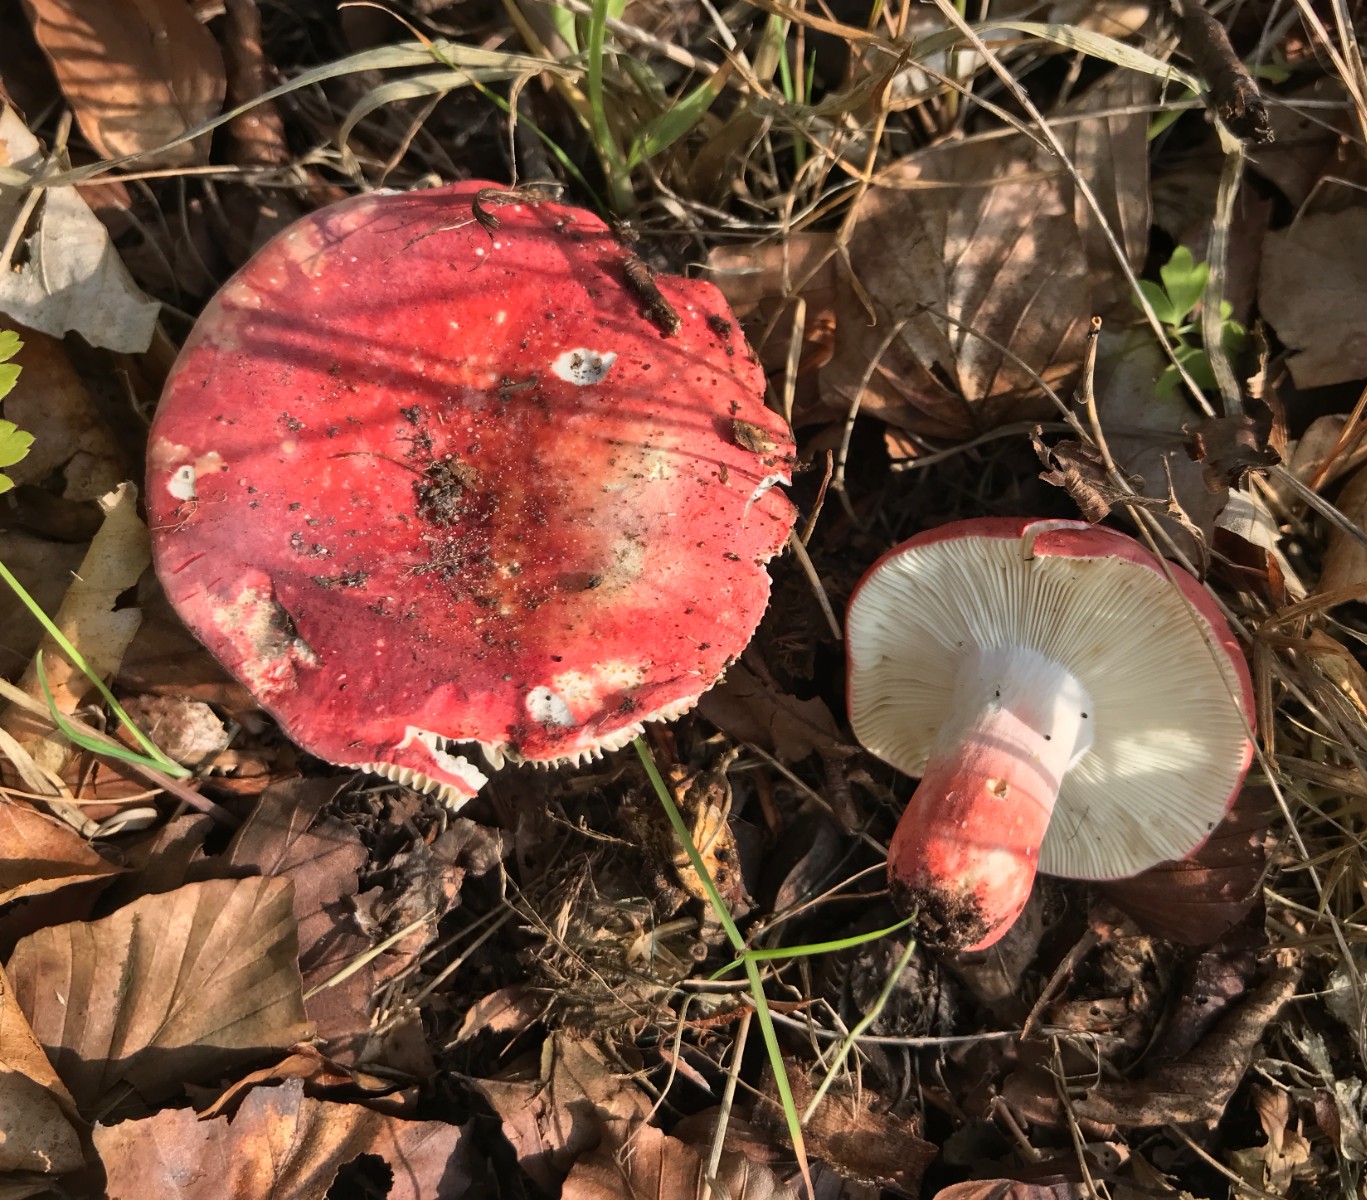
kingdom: Fungi
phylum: Basidiomycota
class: Agaricomycetes
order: Russulales
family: Russulaceae
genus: Russula
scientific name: Russula rosea
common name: fastkødet skørhat
